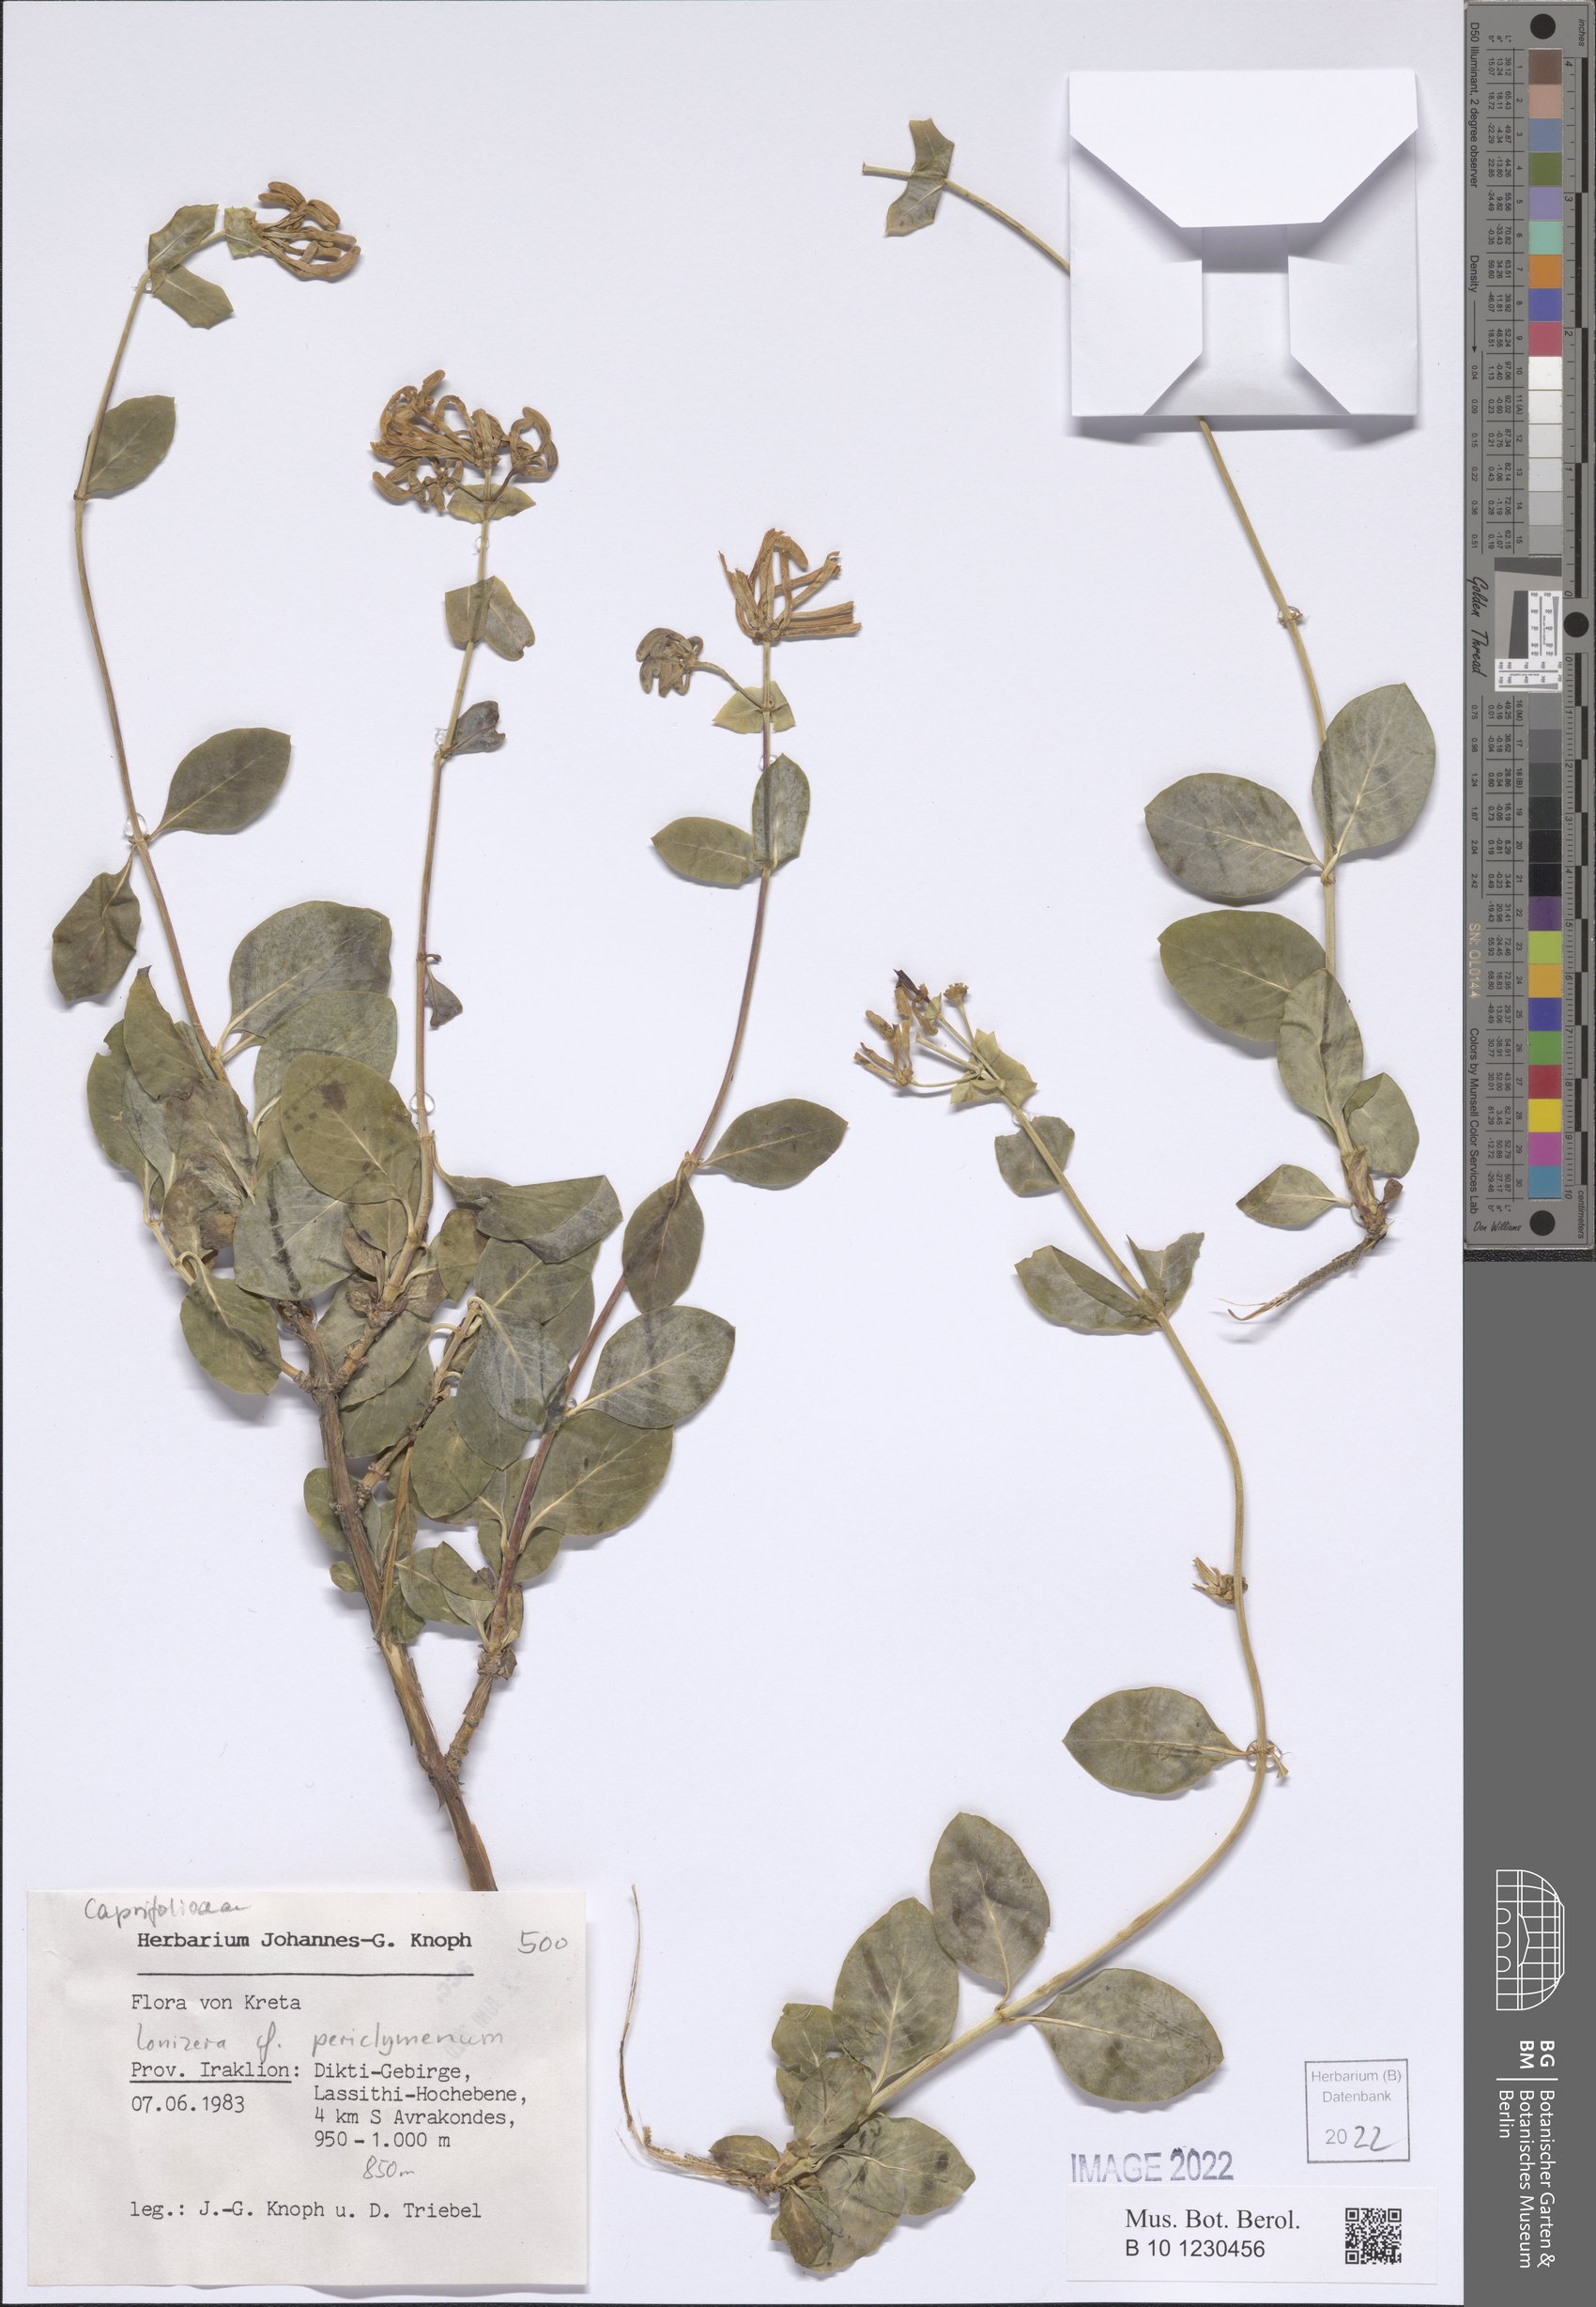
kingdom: Plantae
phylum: Tracheophyta
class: Magnoliopsida
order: Dipsacales
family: Caprifoliaceae
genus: Lonicera
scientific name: Lonicera periclymenum
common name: European honeysuckle
